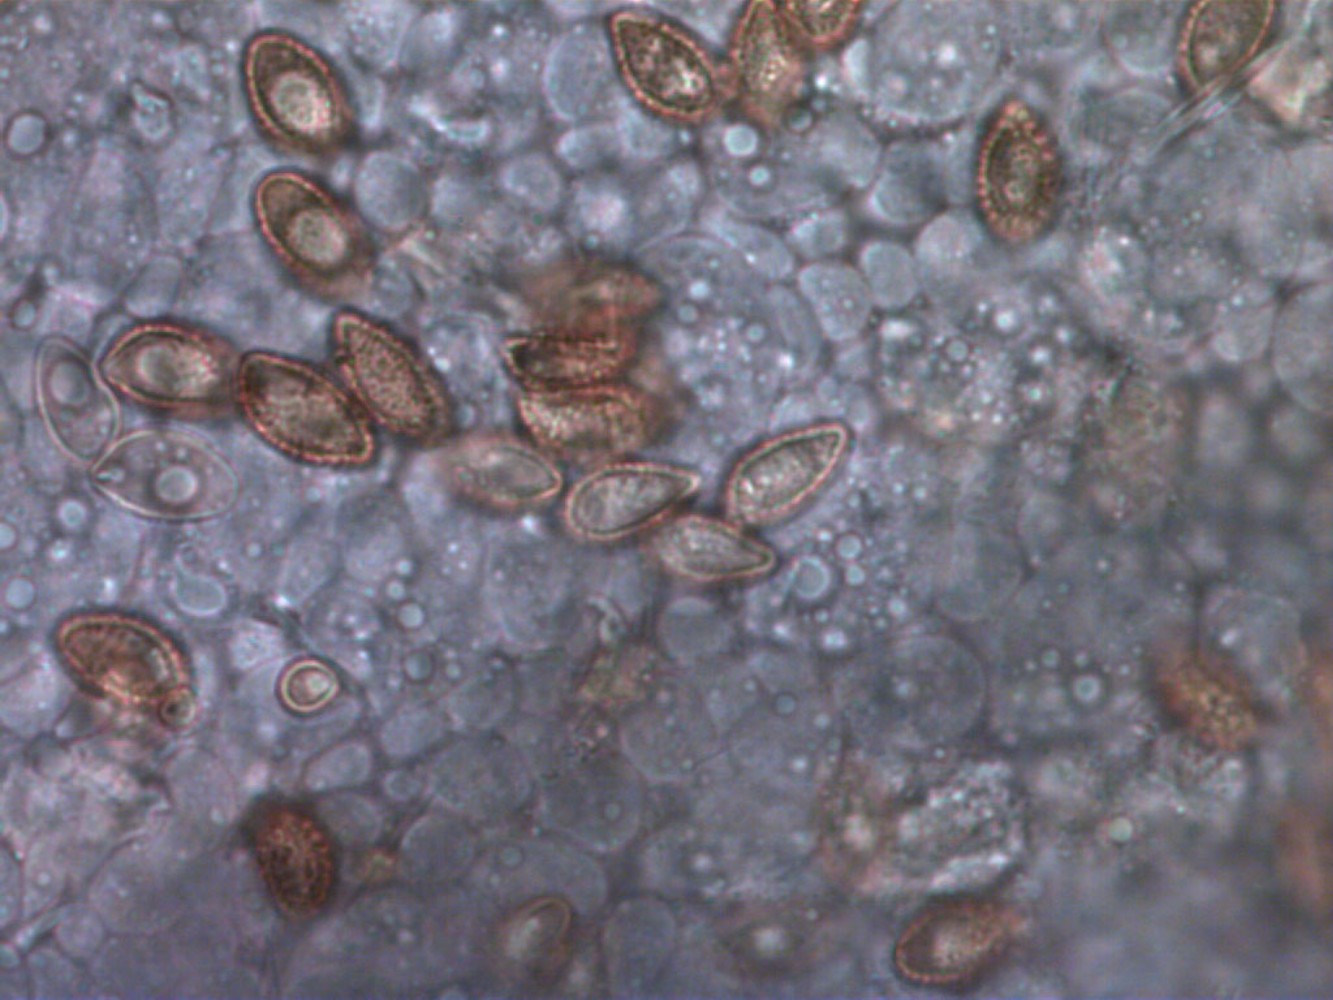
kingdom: Fungi
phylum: Basidiomycota
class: Agaricomycetes
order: Agaricales
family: Cortinariaceae
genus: Phlegmacium
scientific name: Phlegmacium moenne-loccozii
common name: pose-slørhat
